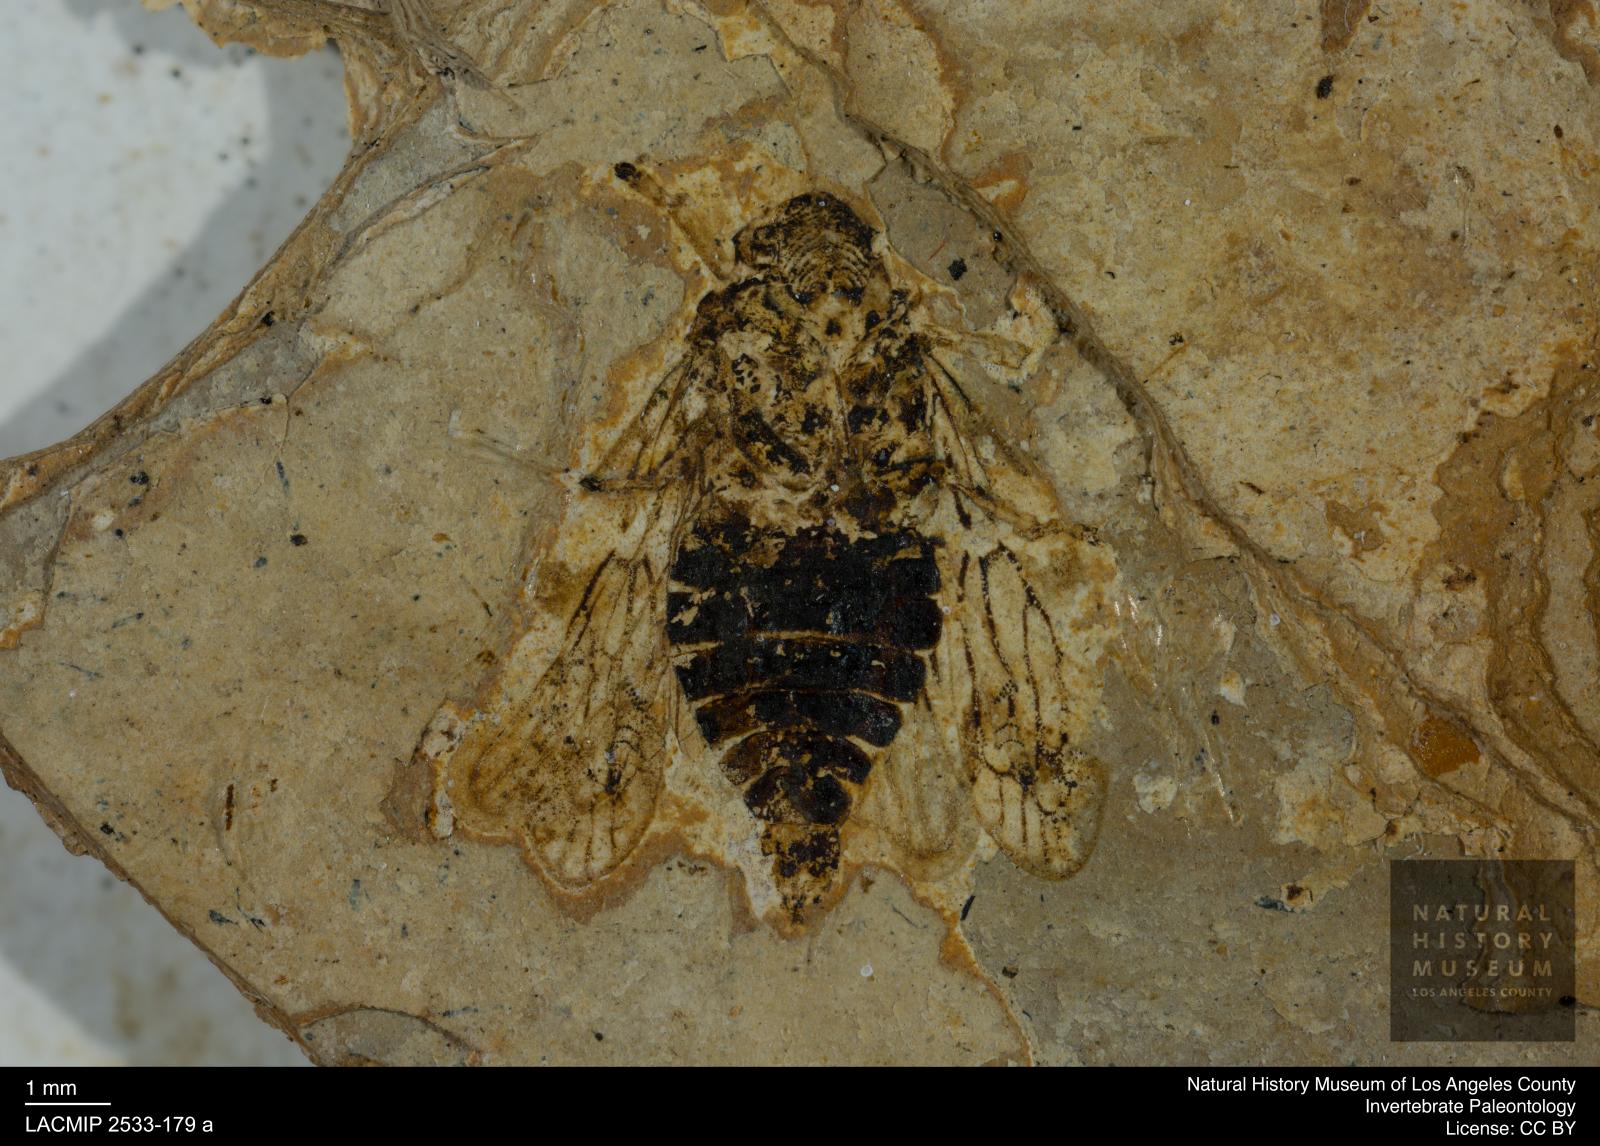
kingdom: Animalia
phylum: Arthropoda
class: Insecta
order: Hemiptera
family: Cicadellidae
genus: Oligogypona
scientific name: Oligogypona haupti
